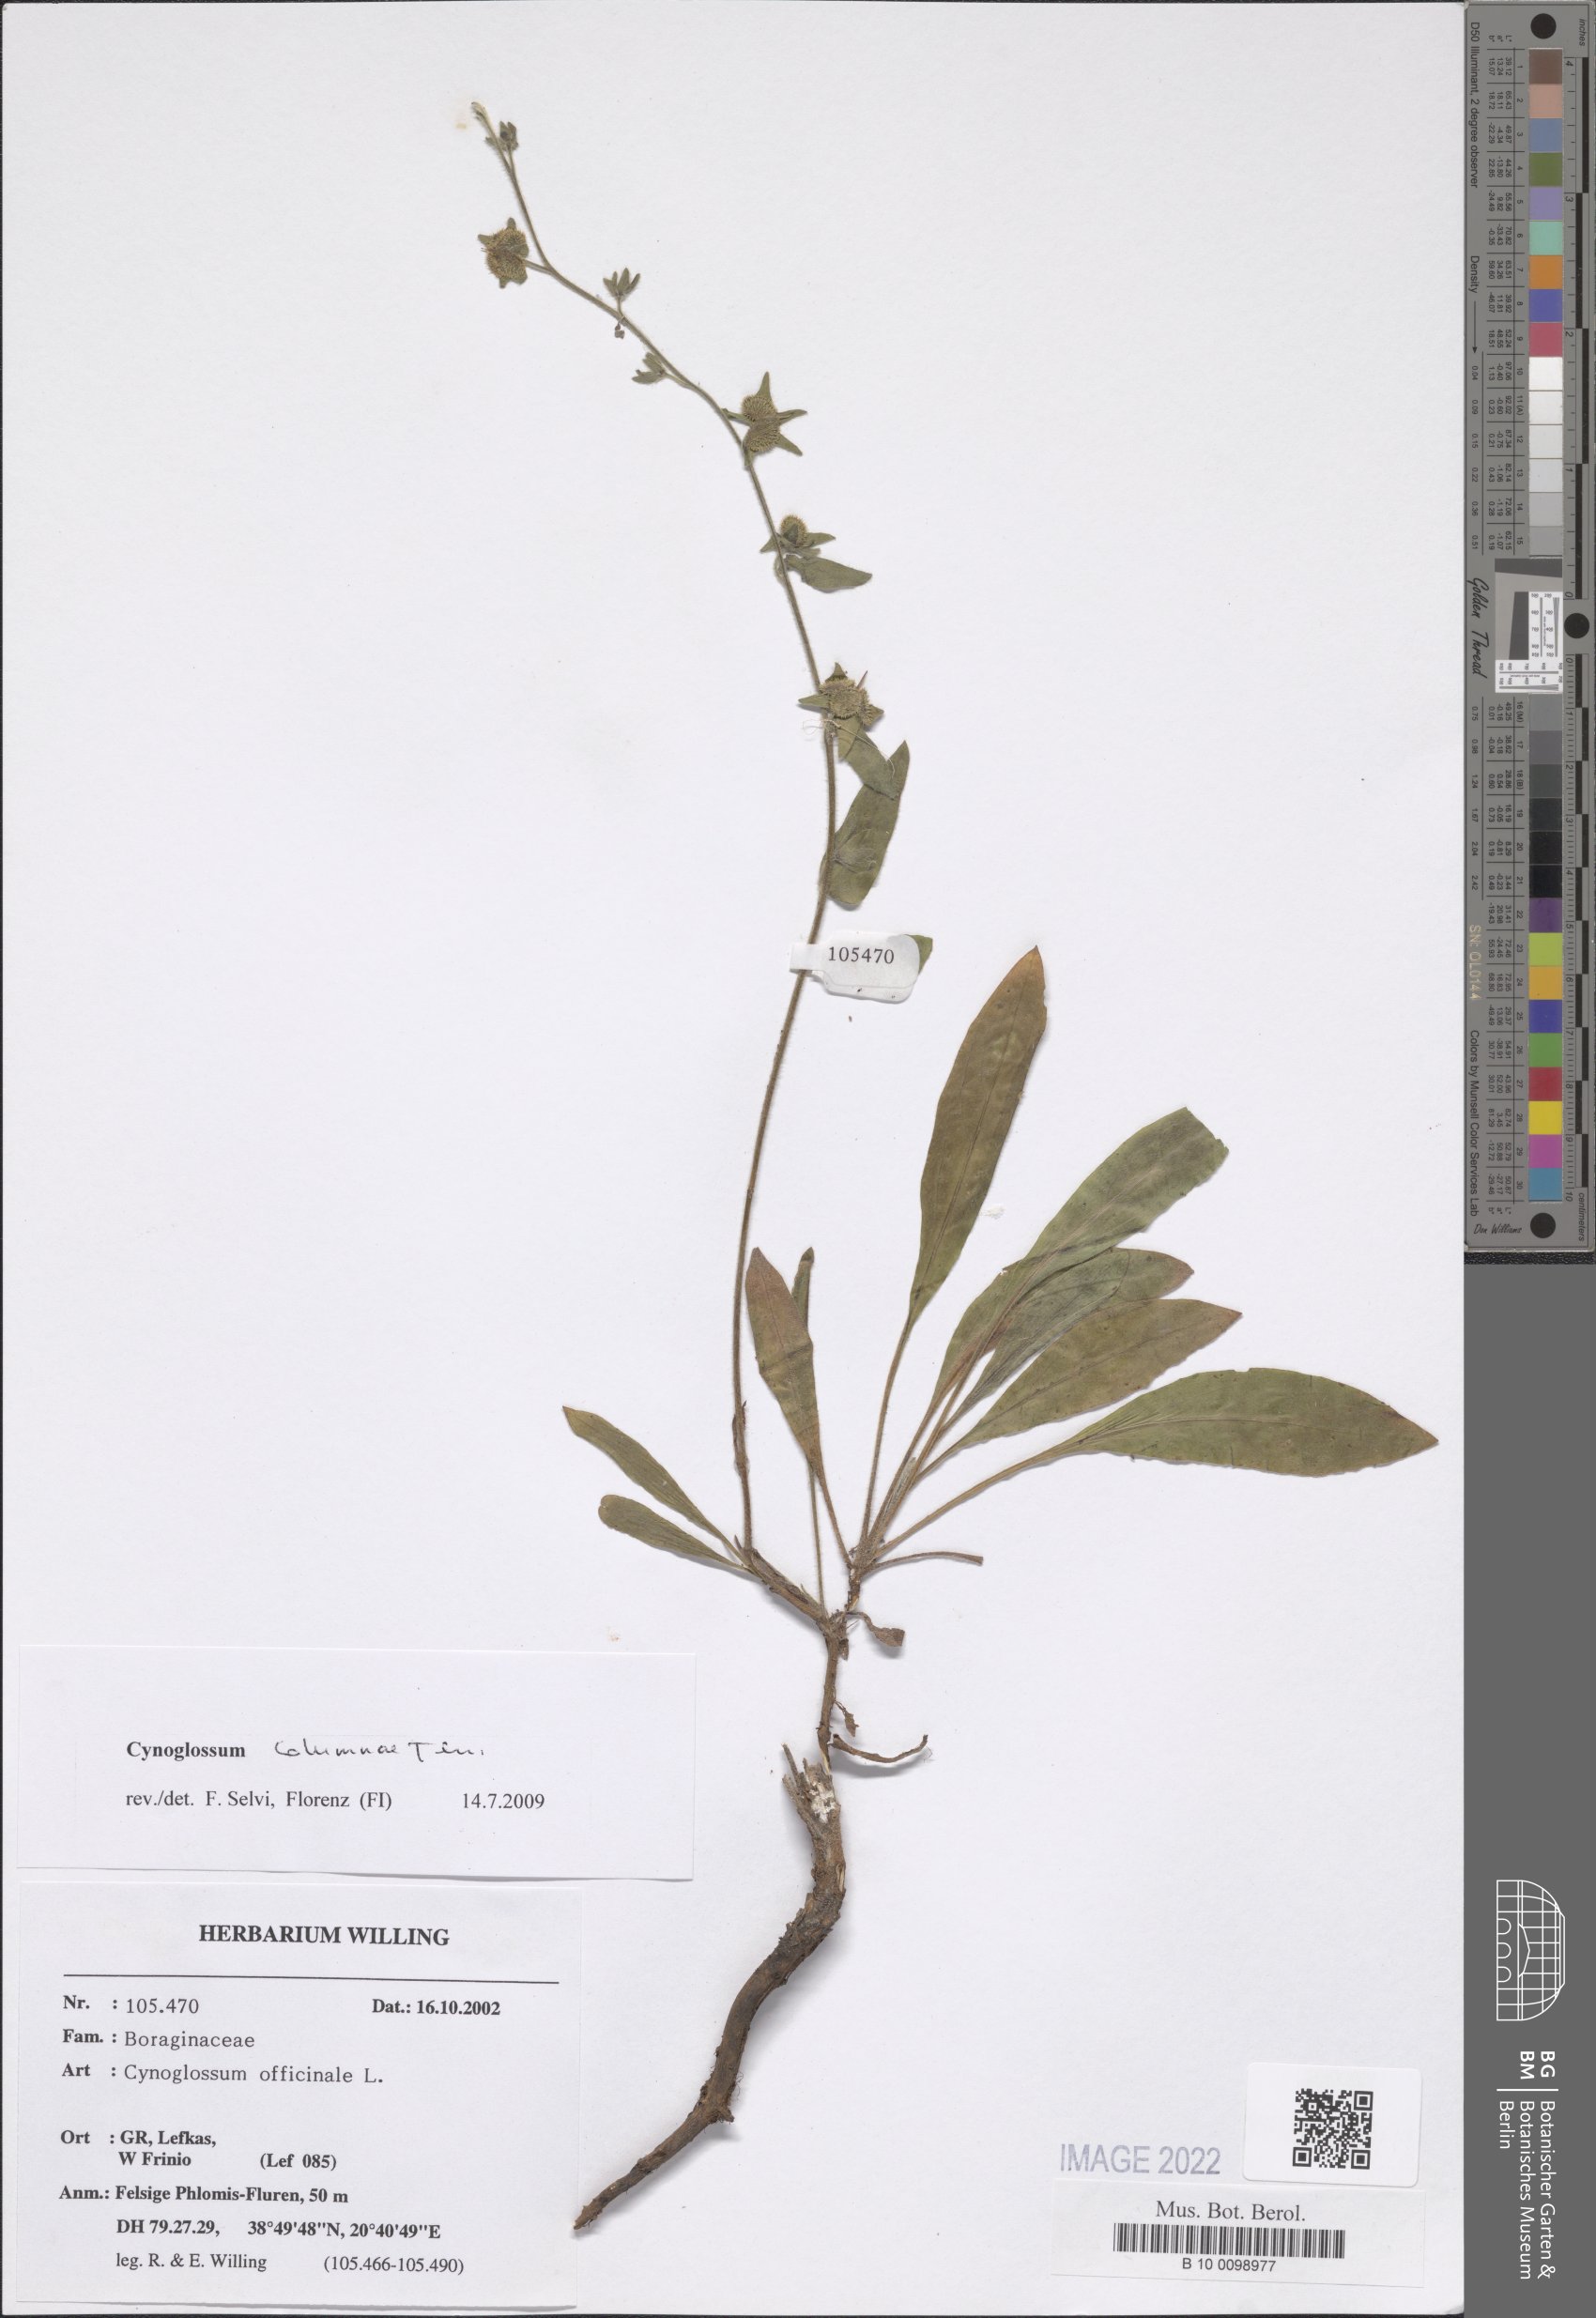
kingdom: Plantae
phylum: Tracheophyta
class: Magnoliopsida
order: Boraginales
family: Boraginaceae
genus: Rindera
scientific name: Rindera columnae
